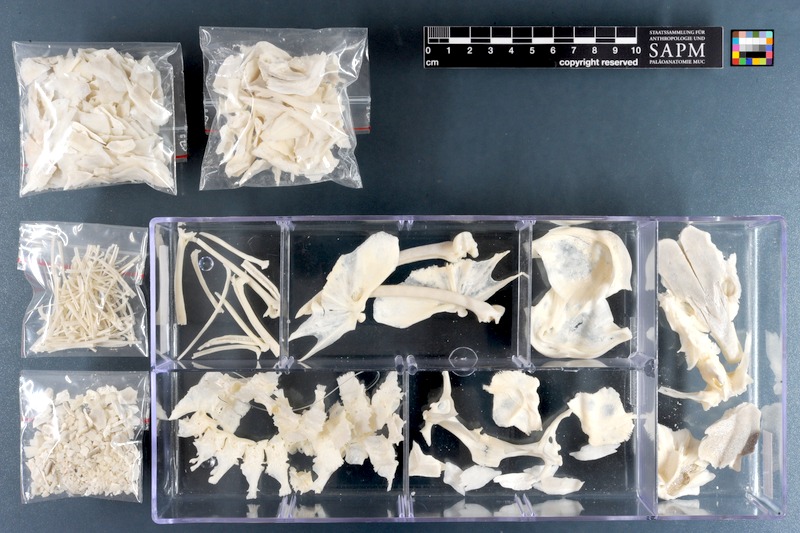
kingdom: Animalia
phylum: Chordata
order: Siluriformes
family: Loricariidae
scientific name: Loricariidae
